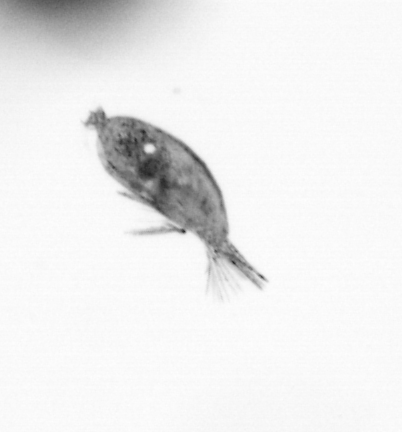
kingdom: Animalia
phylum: Arthropoda
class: Maxillopoda
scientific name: Maxillopoda
